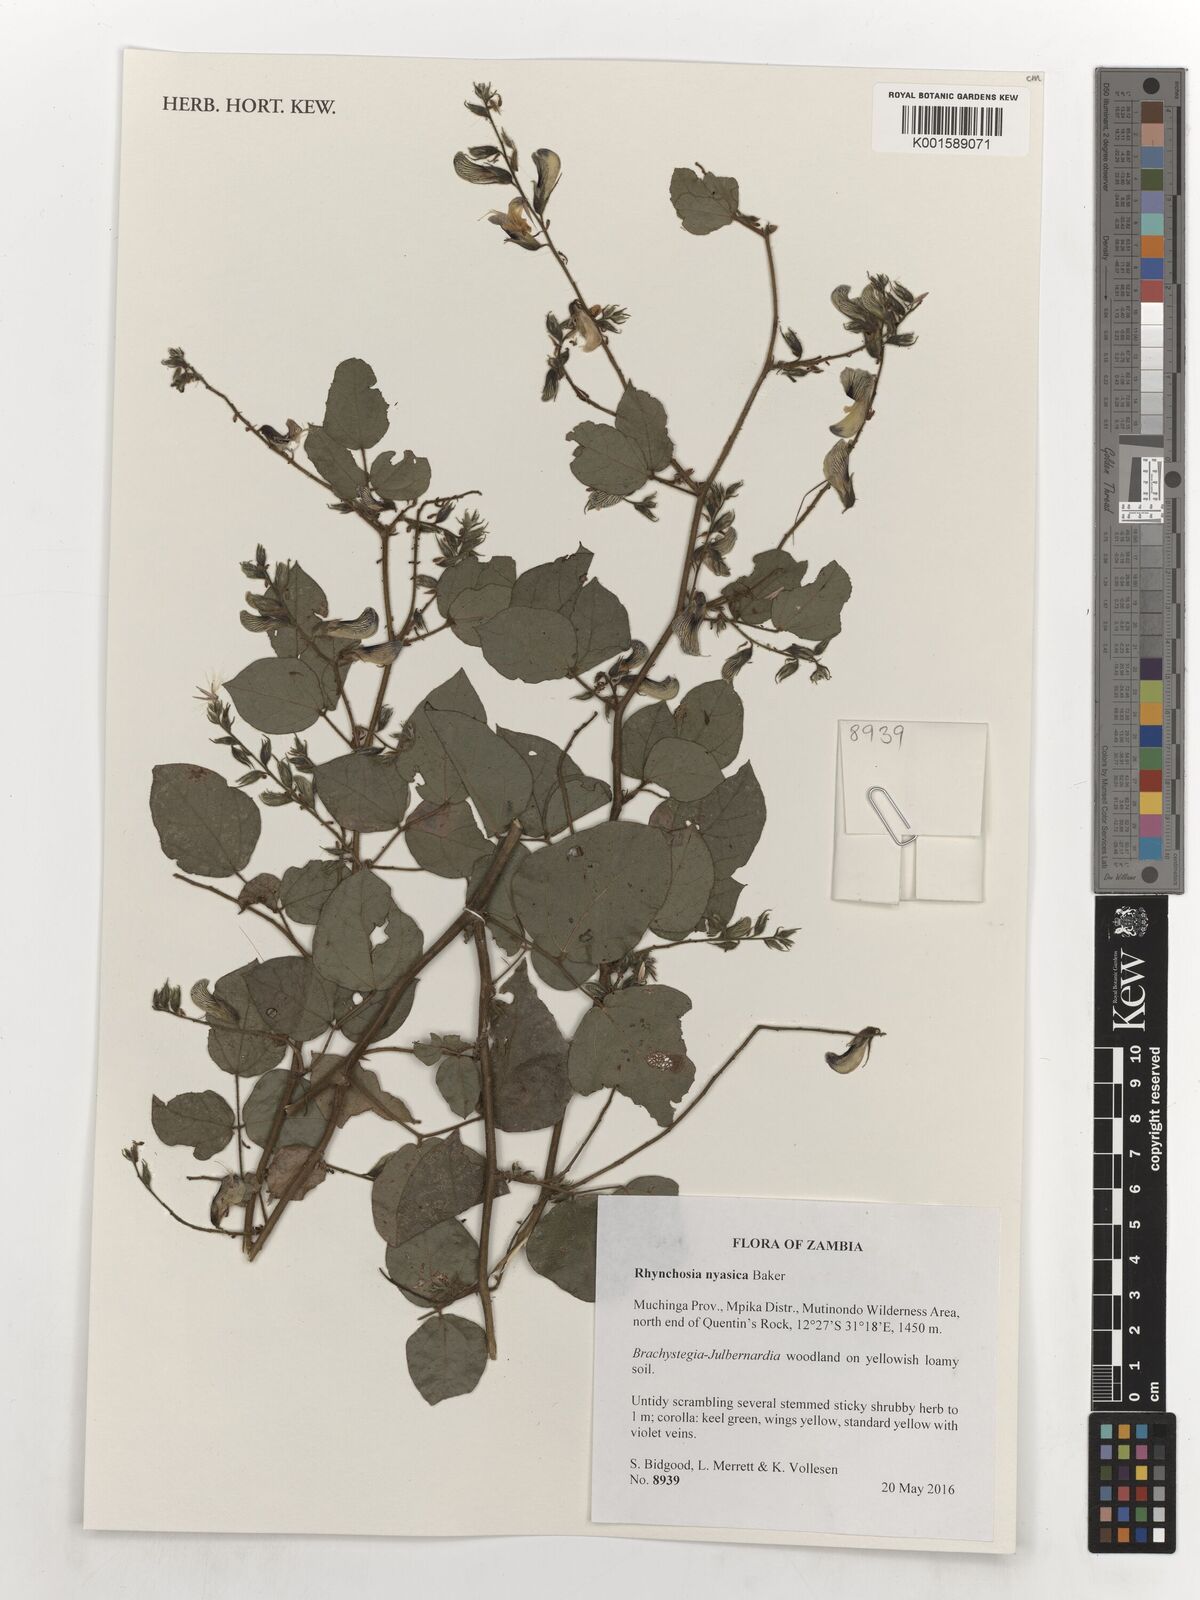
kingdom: Plantae
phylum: Tracheophyta
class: Magnoliopsida
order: Fabales
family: Fabaceae
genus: Rhynchosia
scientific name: Rhynchosia nyasica
